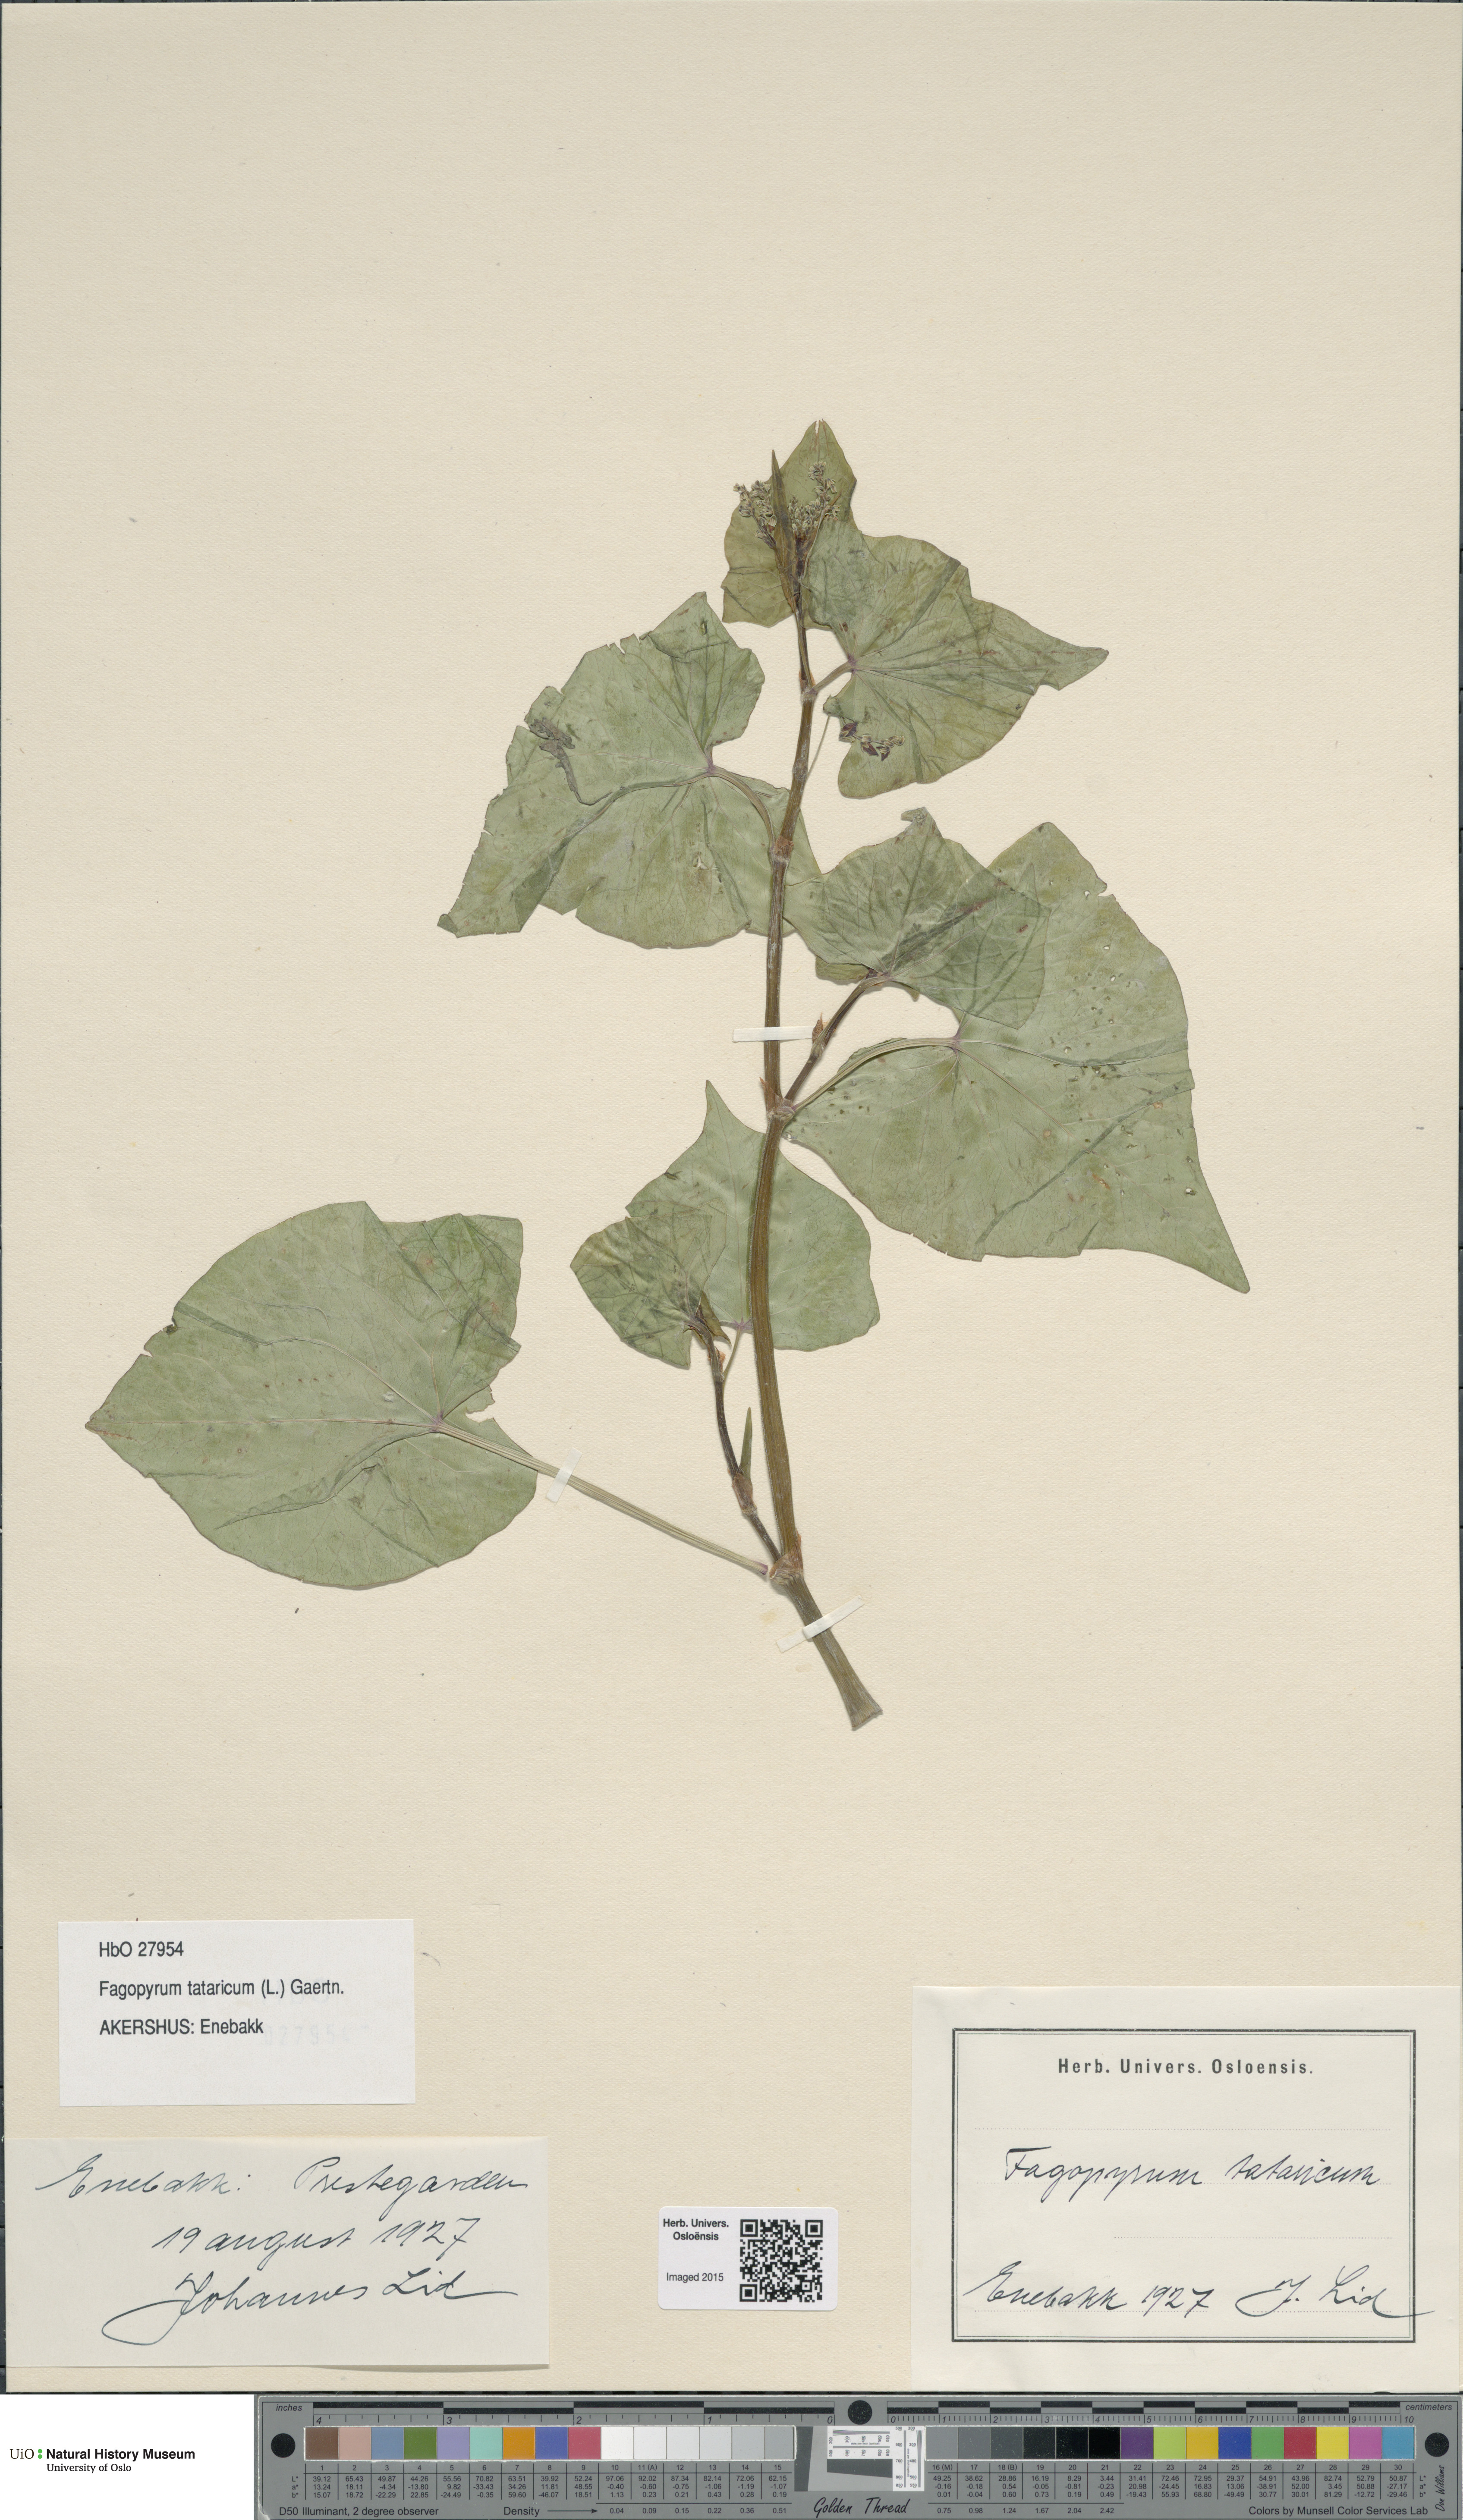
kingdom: Plantae
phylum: Tracheophyta
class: Magnoliopsida
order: Caryophyllales
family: Polygonaceae
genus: Fagopyrum
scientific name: Fagopyrum tataricum
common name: Green buckwheat
